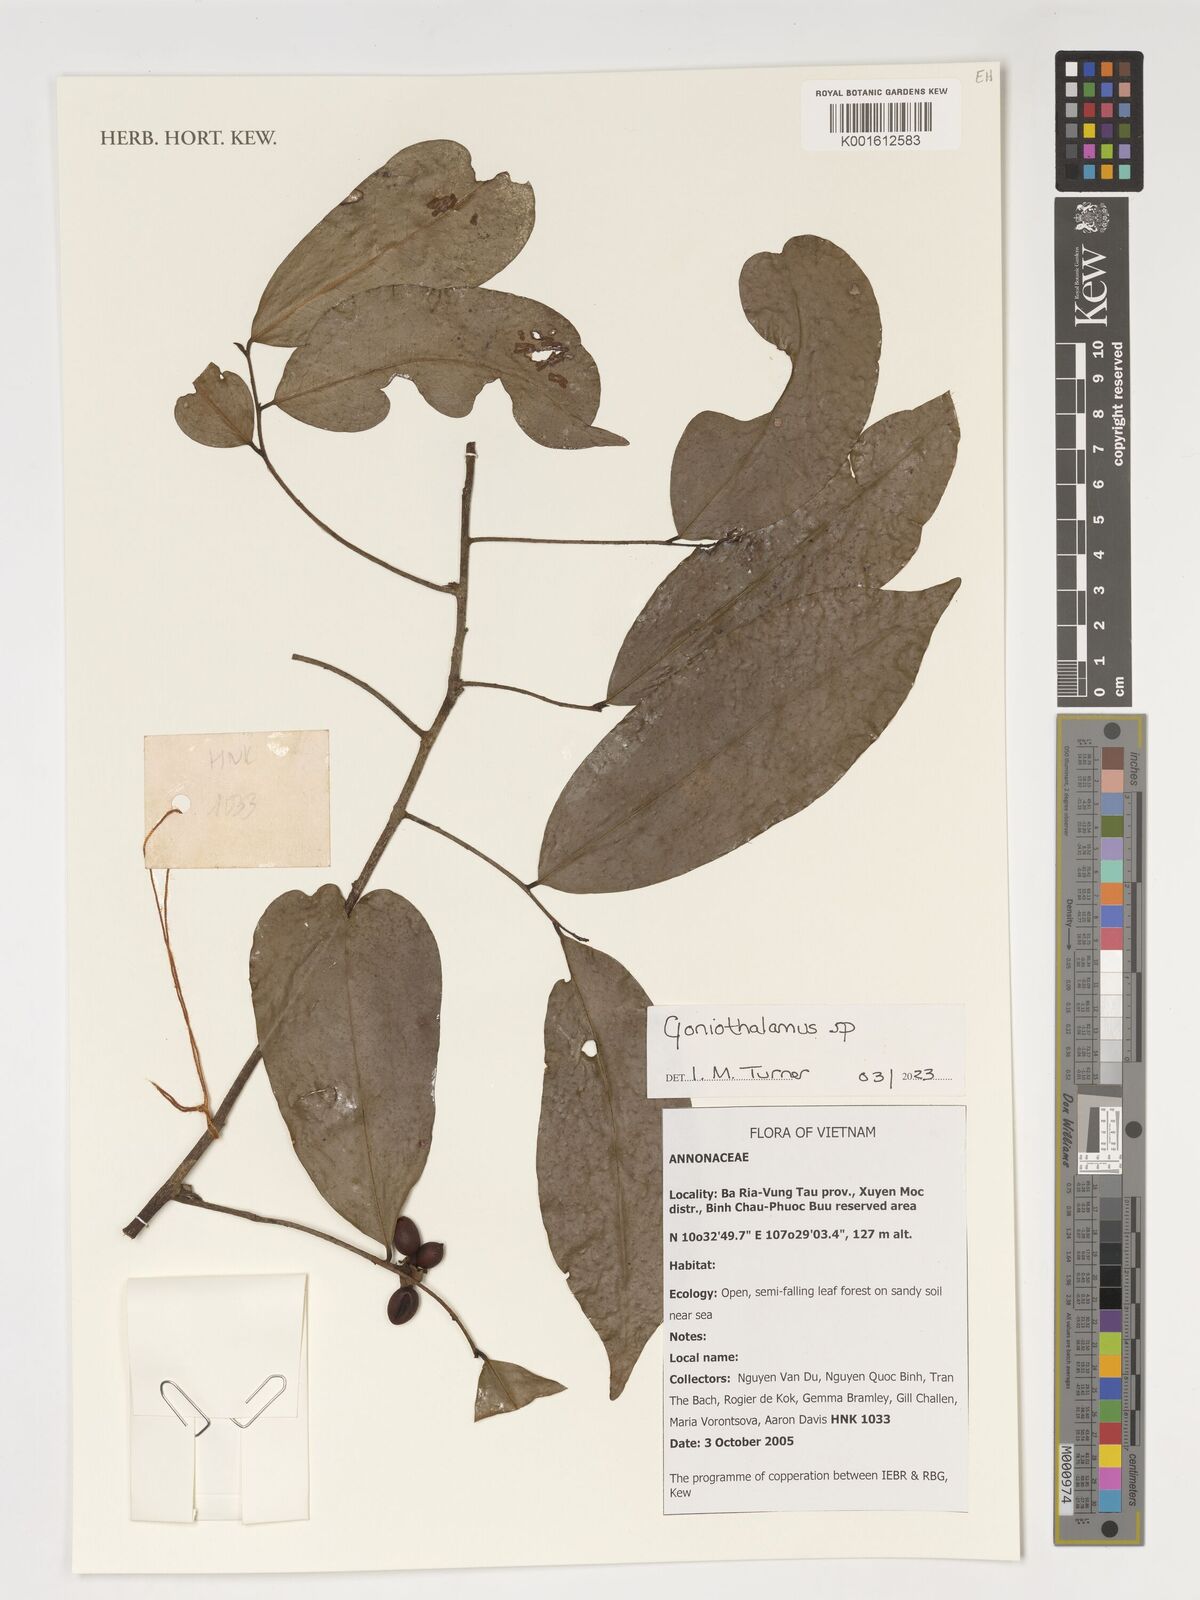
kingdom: Plantae
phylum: Tracheophyta
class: Magnoliopsida
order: Magnoliales
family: Annonaceae
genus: Goniothalamus
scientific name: Goniothalamus
